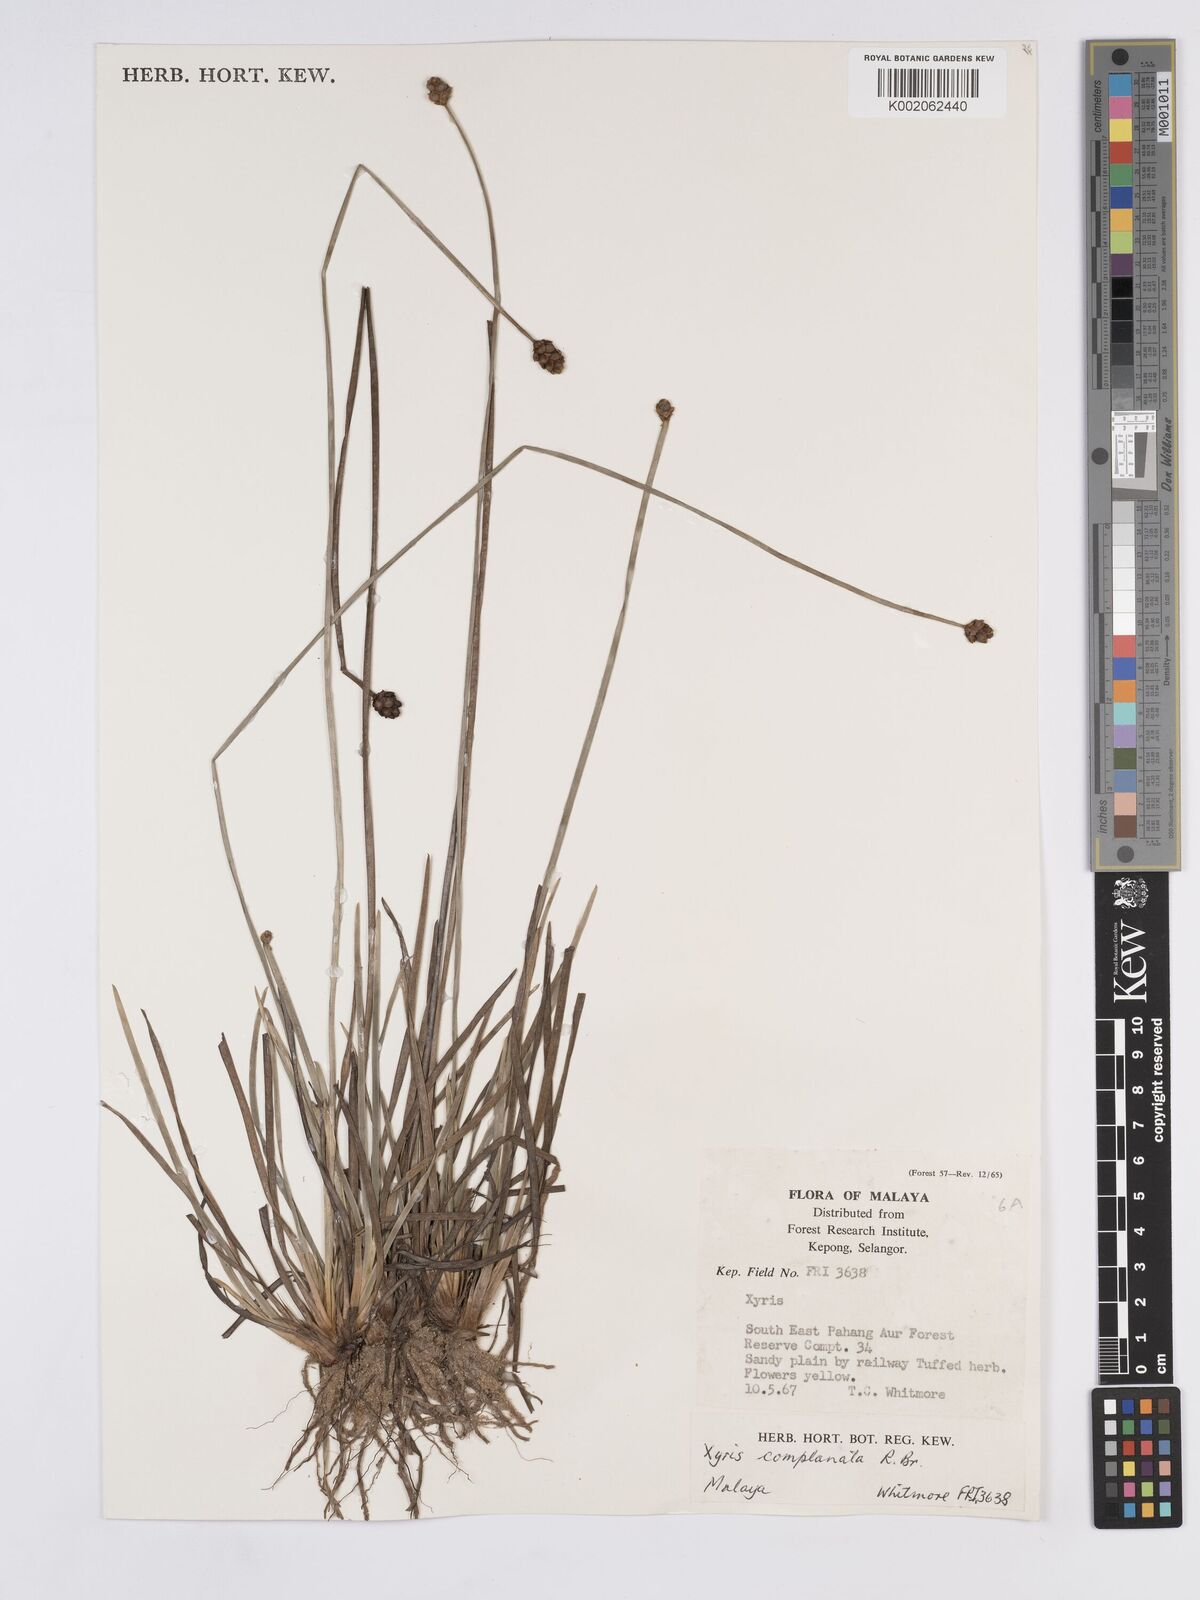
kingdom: Plantae
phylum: Tracheophyta
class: Liliopsida
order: Poales
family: Xyridaceae
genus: Xyris
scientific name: Xyris complanata
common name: Hawai'i yelloweyed grass
